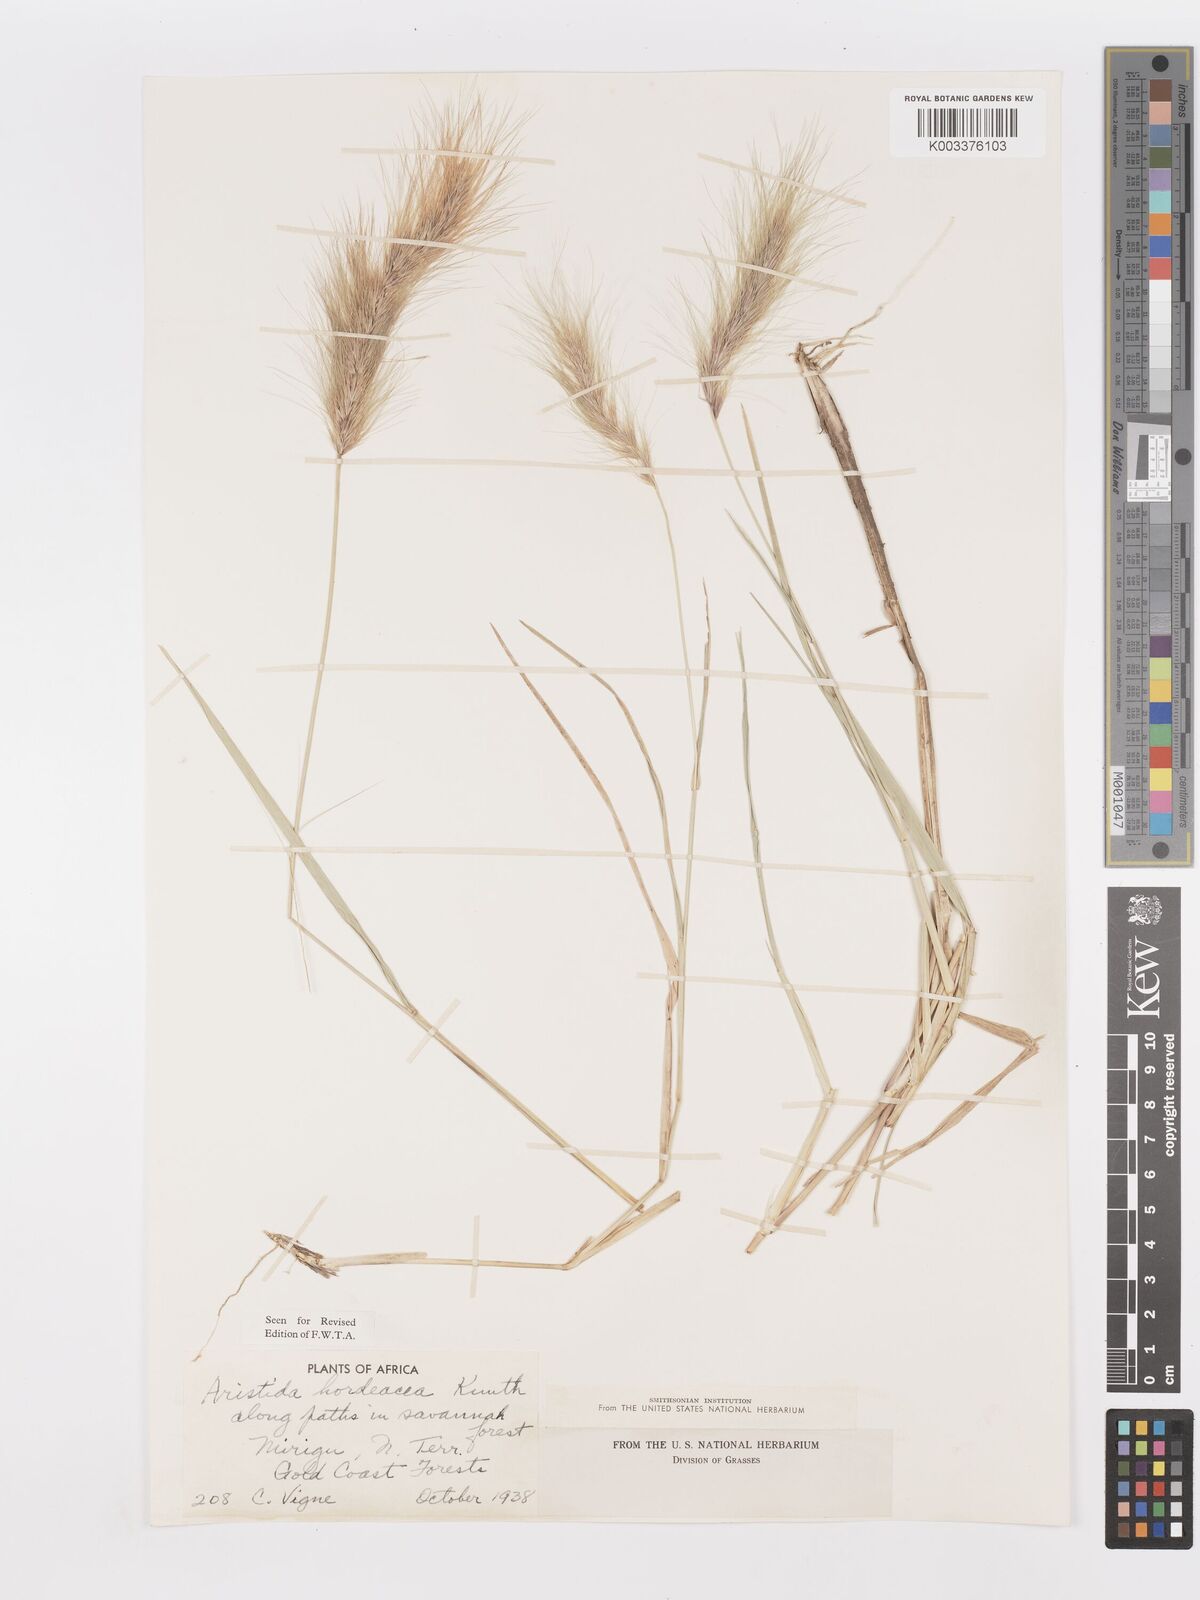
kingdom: Plantae
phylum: Tracheophyta
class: Liliopsida
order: Poales
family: Poaceae
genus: Aristida
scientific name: Aristida hordeacea
